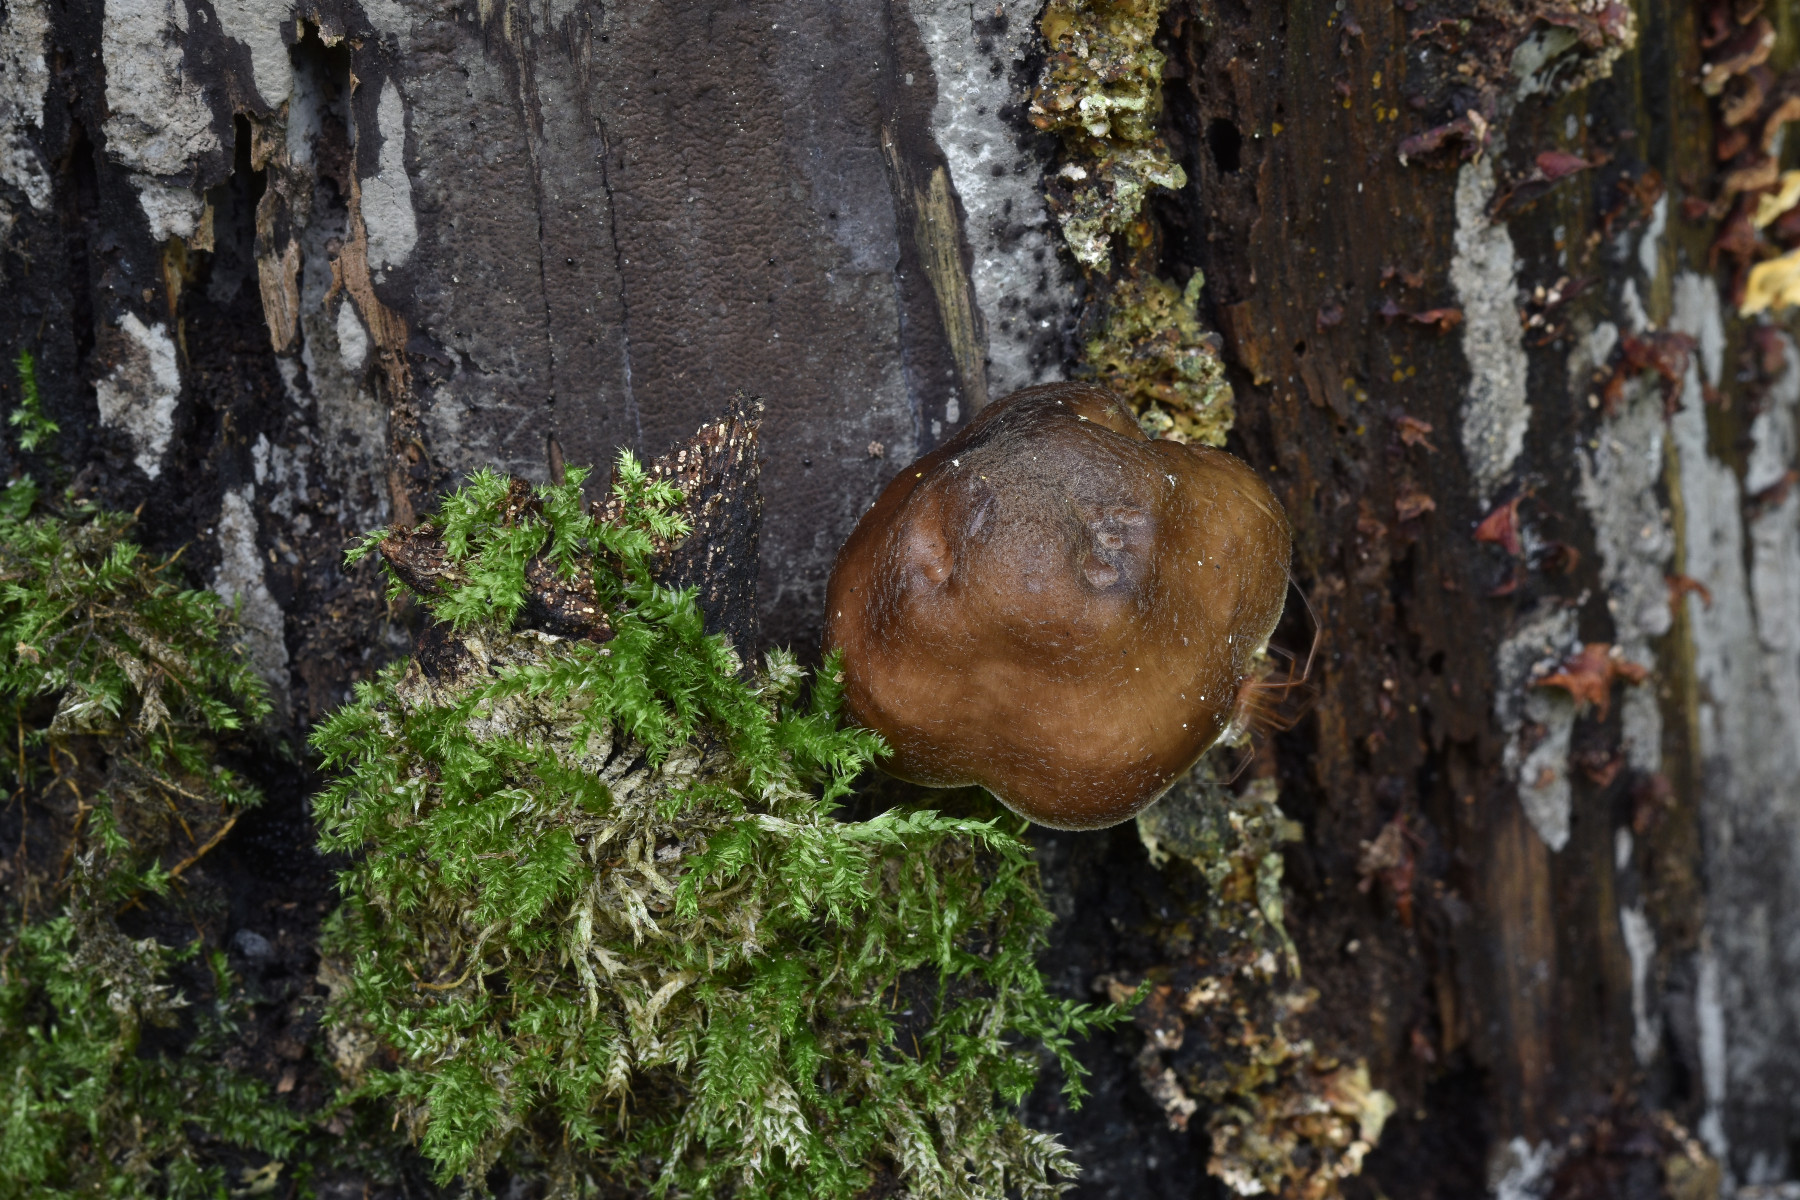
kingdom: Fungi
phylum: Basidiomycota
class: Agaricomycetes
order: Agaricales
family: Pluteaceae
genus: Pluteus
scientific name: Pluteus cervinus
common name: sodfarvet skærmhat
